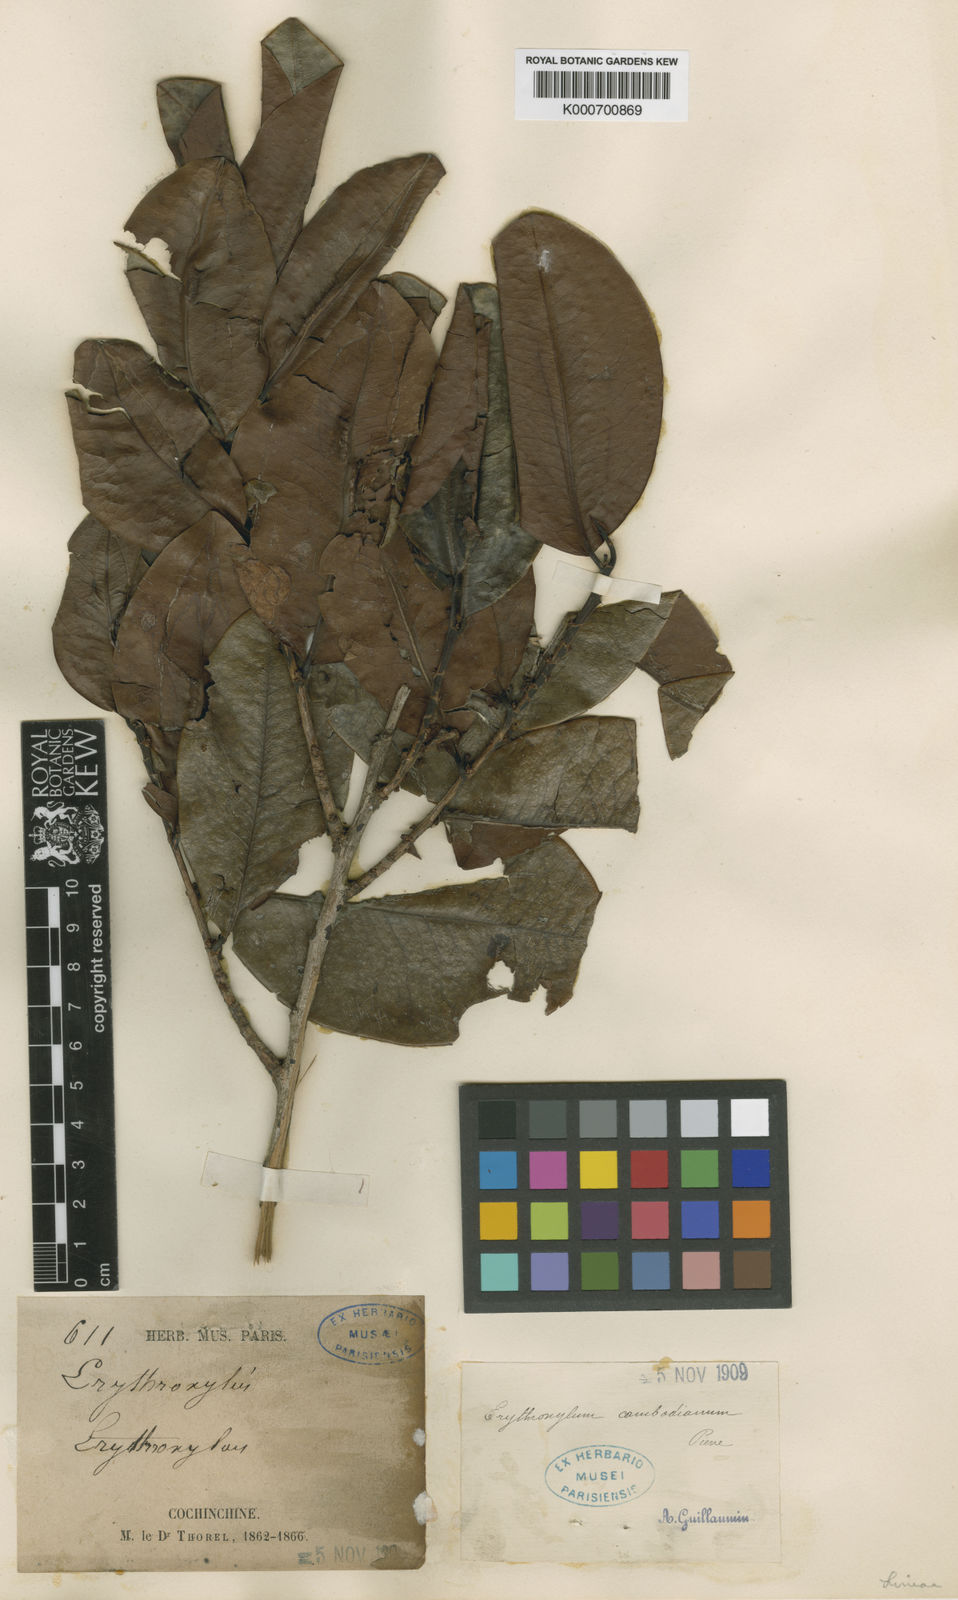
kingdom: Plantae
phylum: Tracheophyta
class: Magnoliopsida
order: Malpighiales
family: Erythroxylaceae
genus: Erythroxylum
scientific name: Erythroxylum cambodianum
